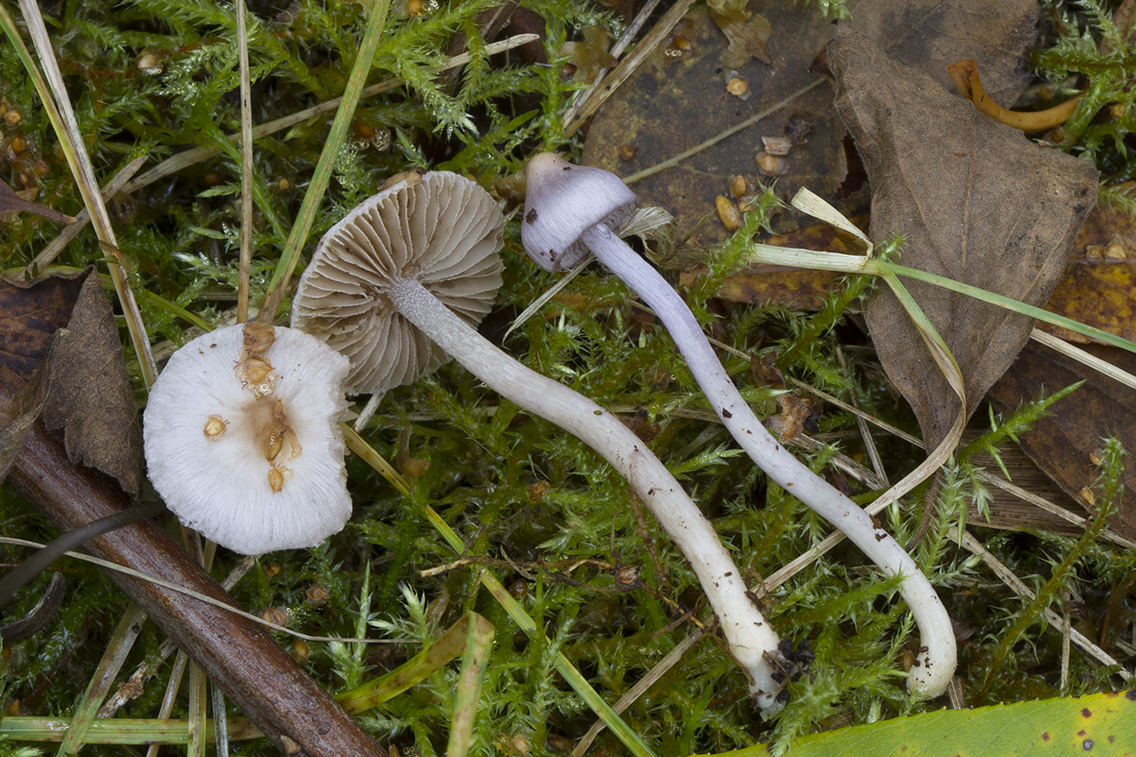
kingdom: Fungi
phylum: Basidiomycota
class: Agaricomycetes
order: Agaricales
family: Inocybaceae
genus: Inocybe
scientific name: Inocybe geophylla
